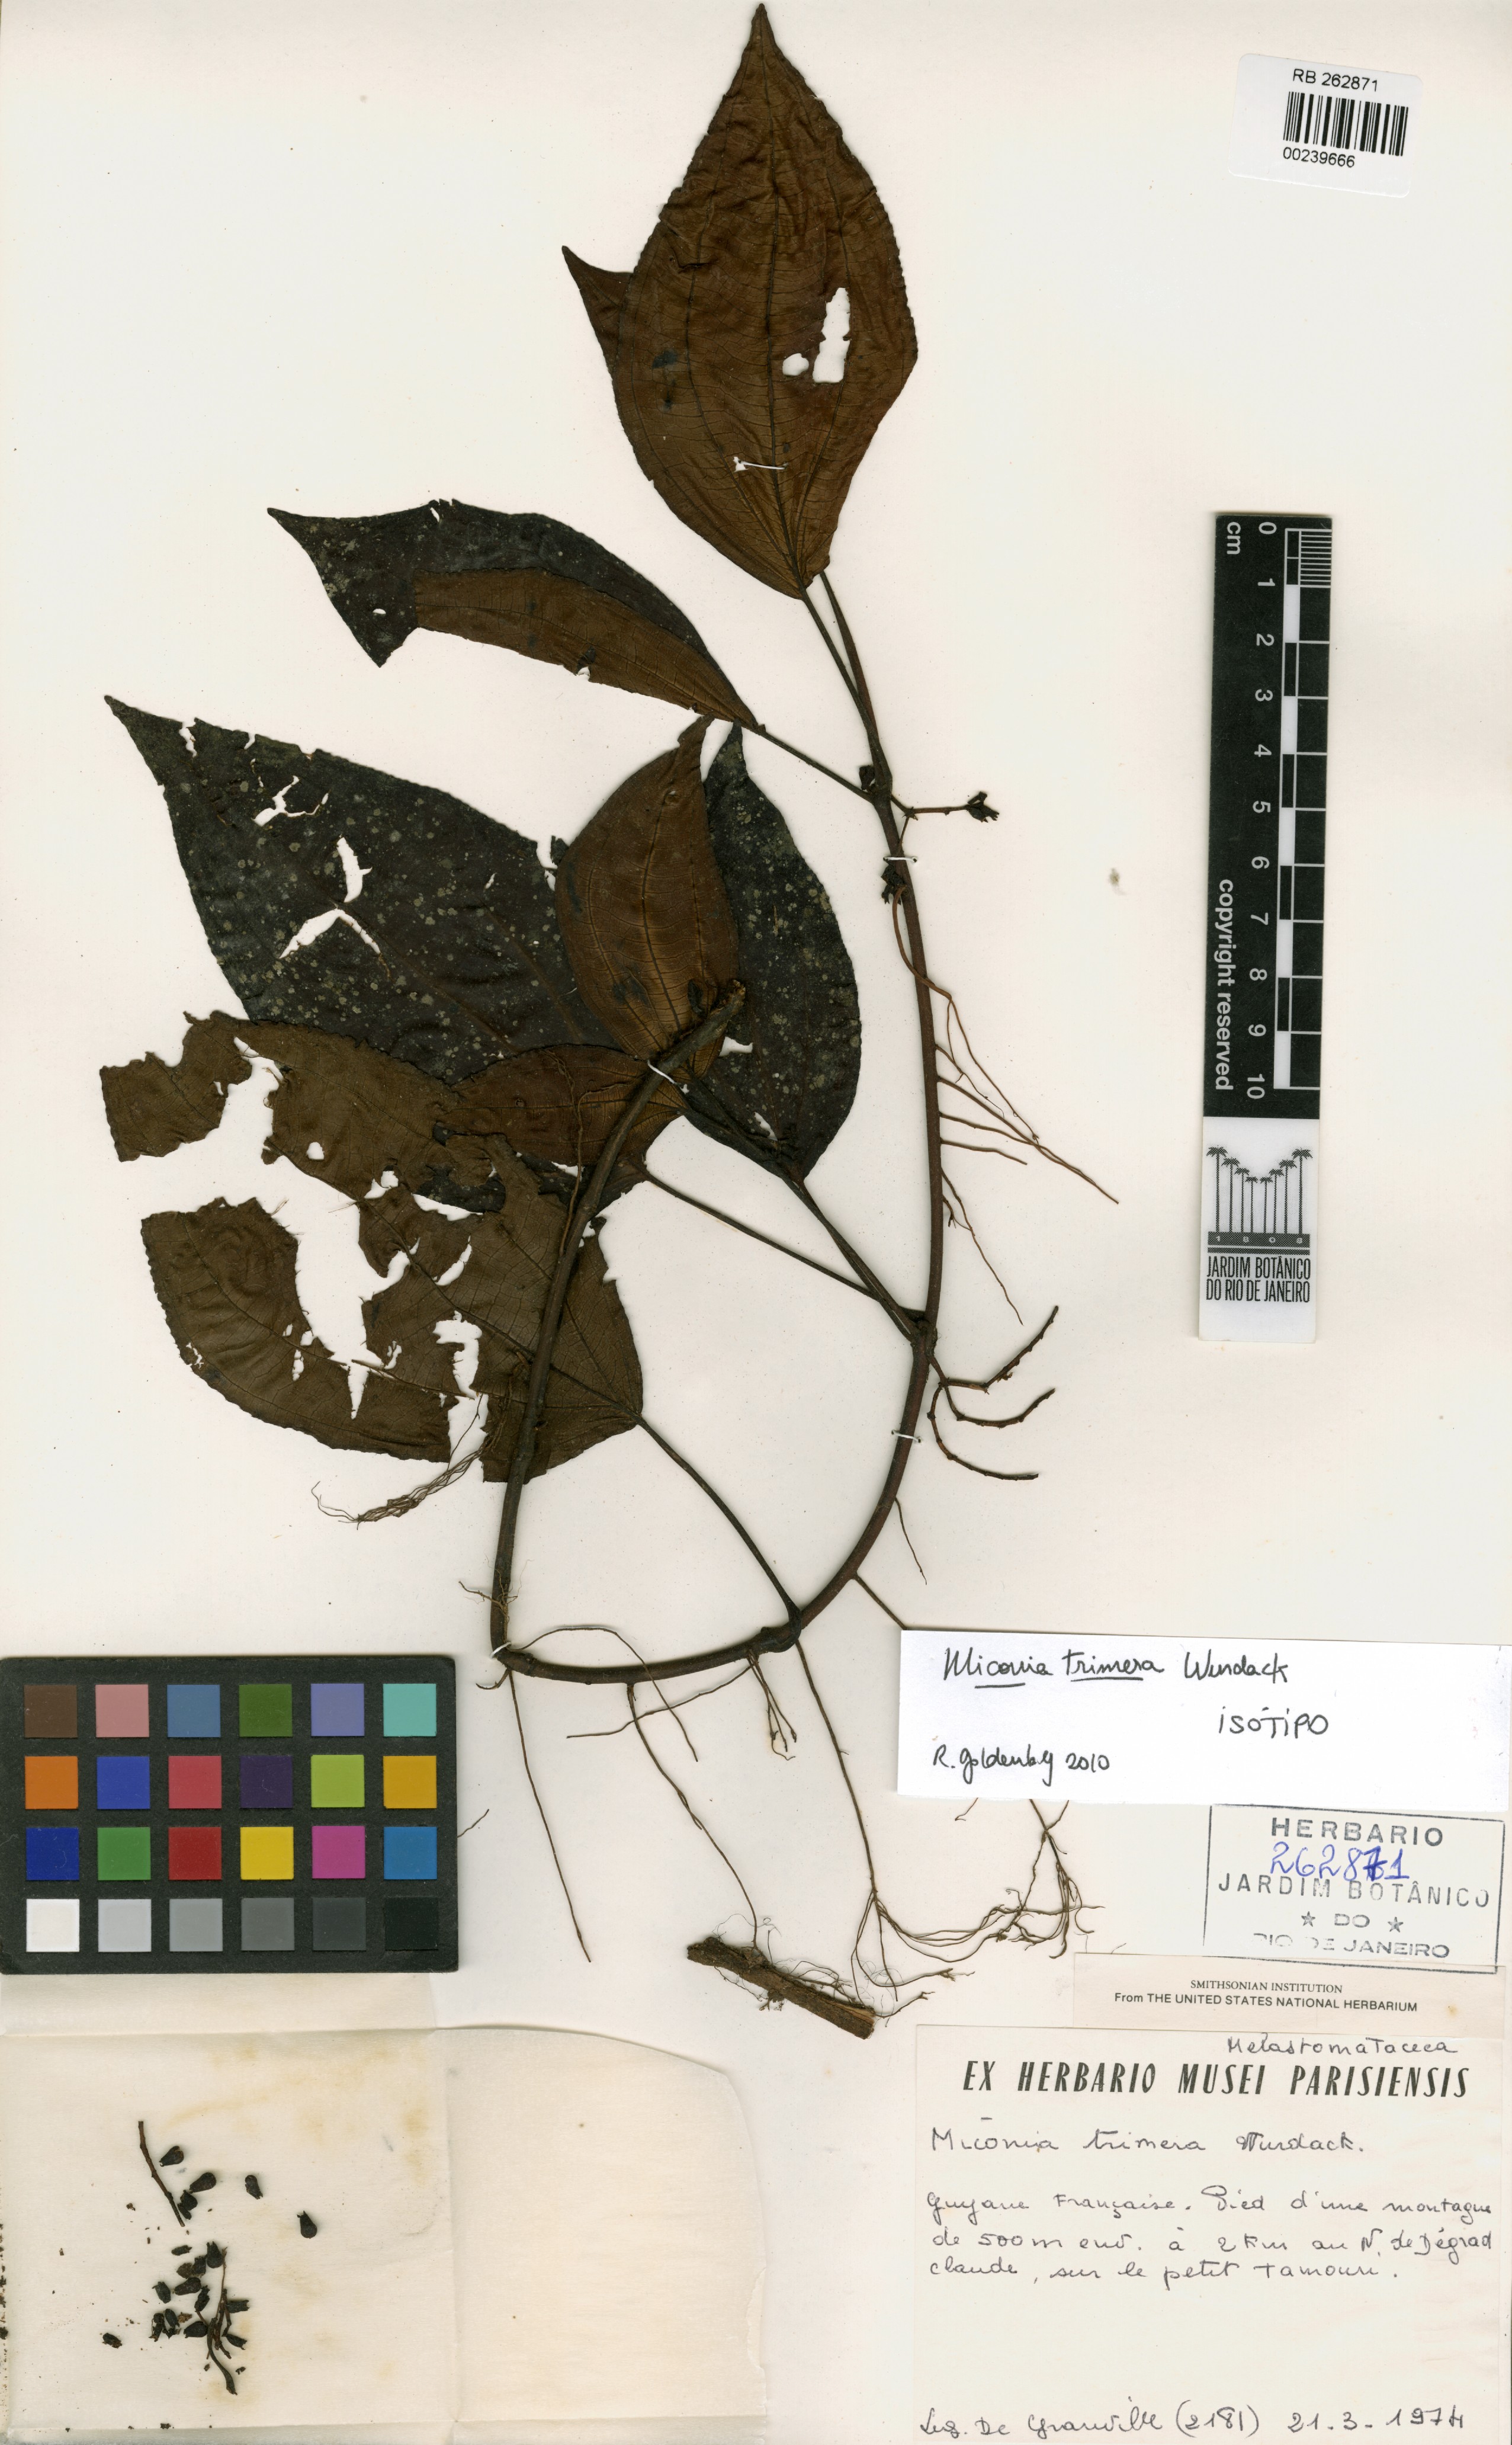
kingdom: Plantae
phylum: Tracheophyta
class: Magnoliopsida
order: Myrtales
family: Melastomataceae
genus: Miconia
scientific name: Miconia trimera
